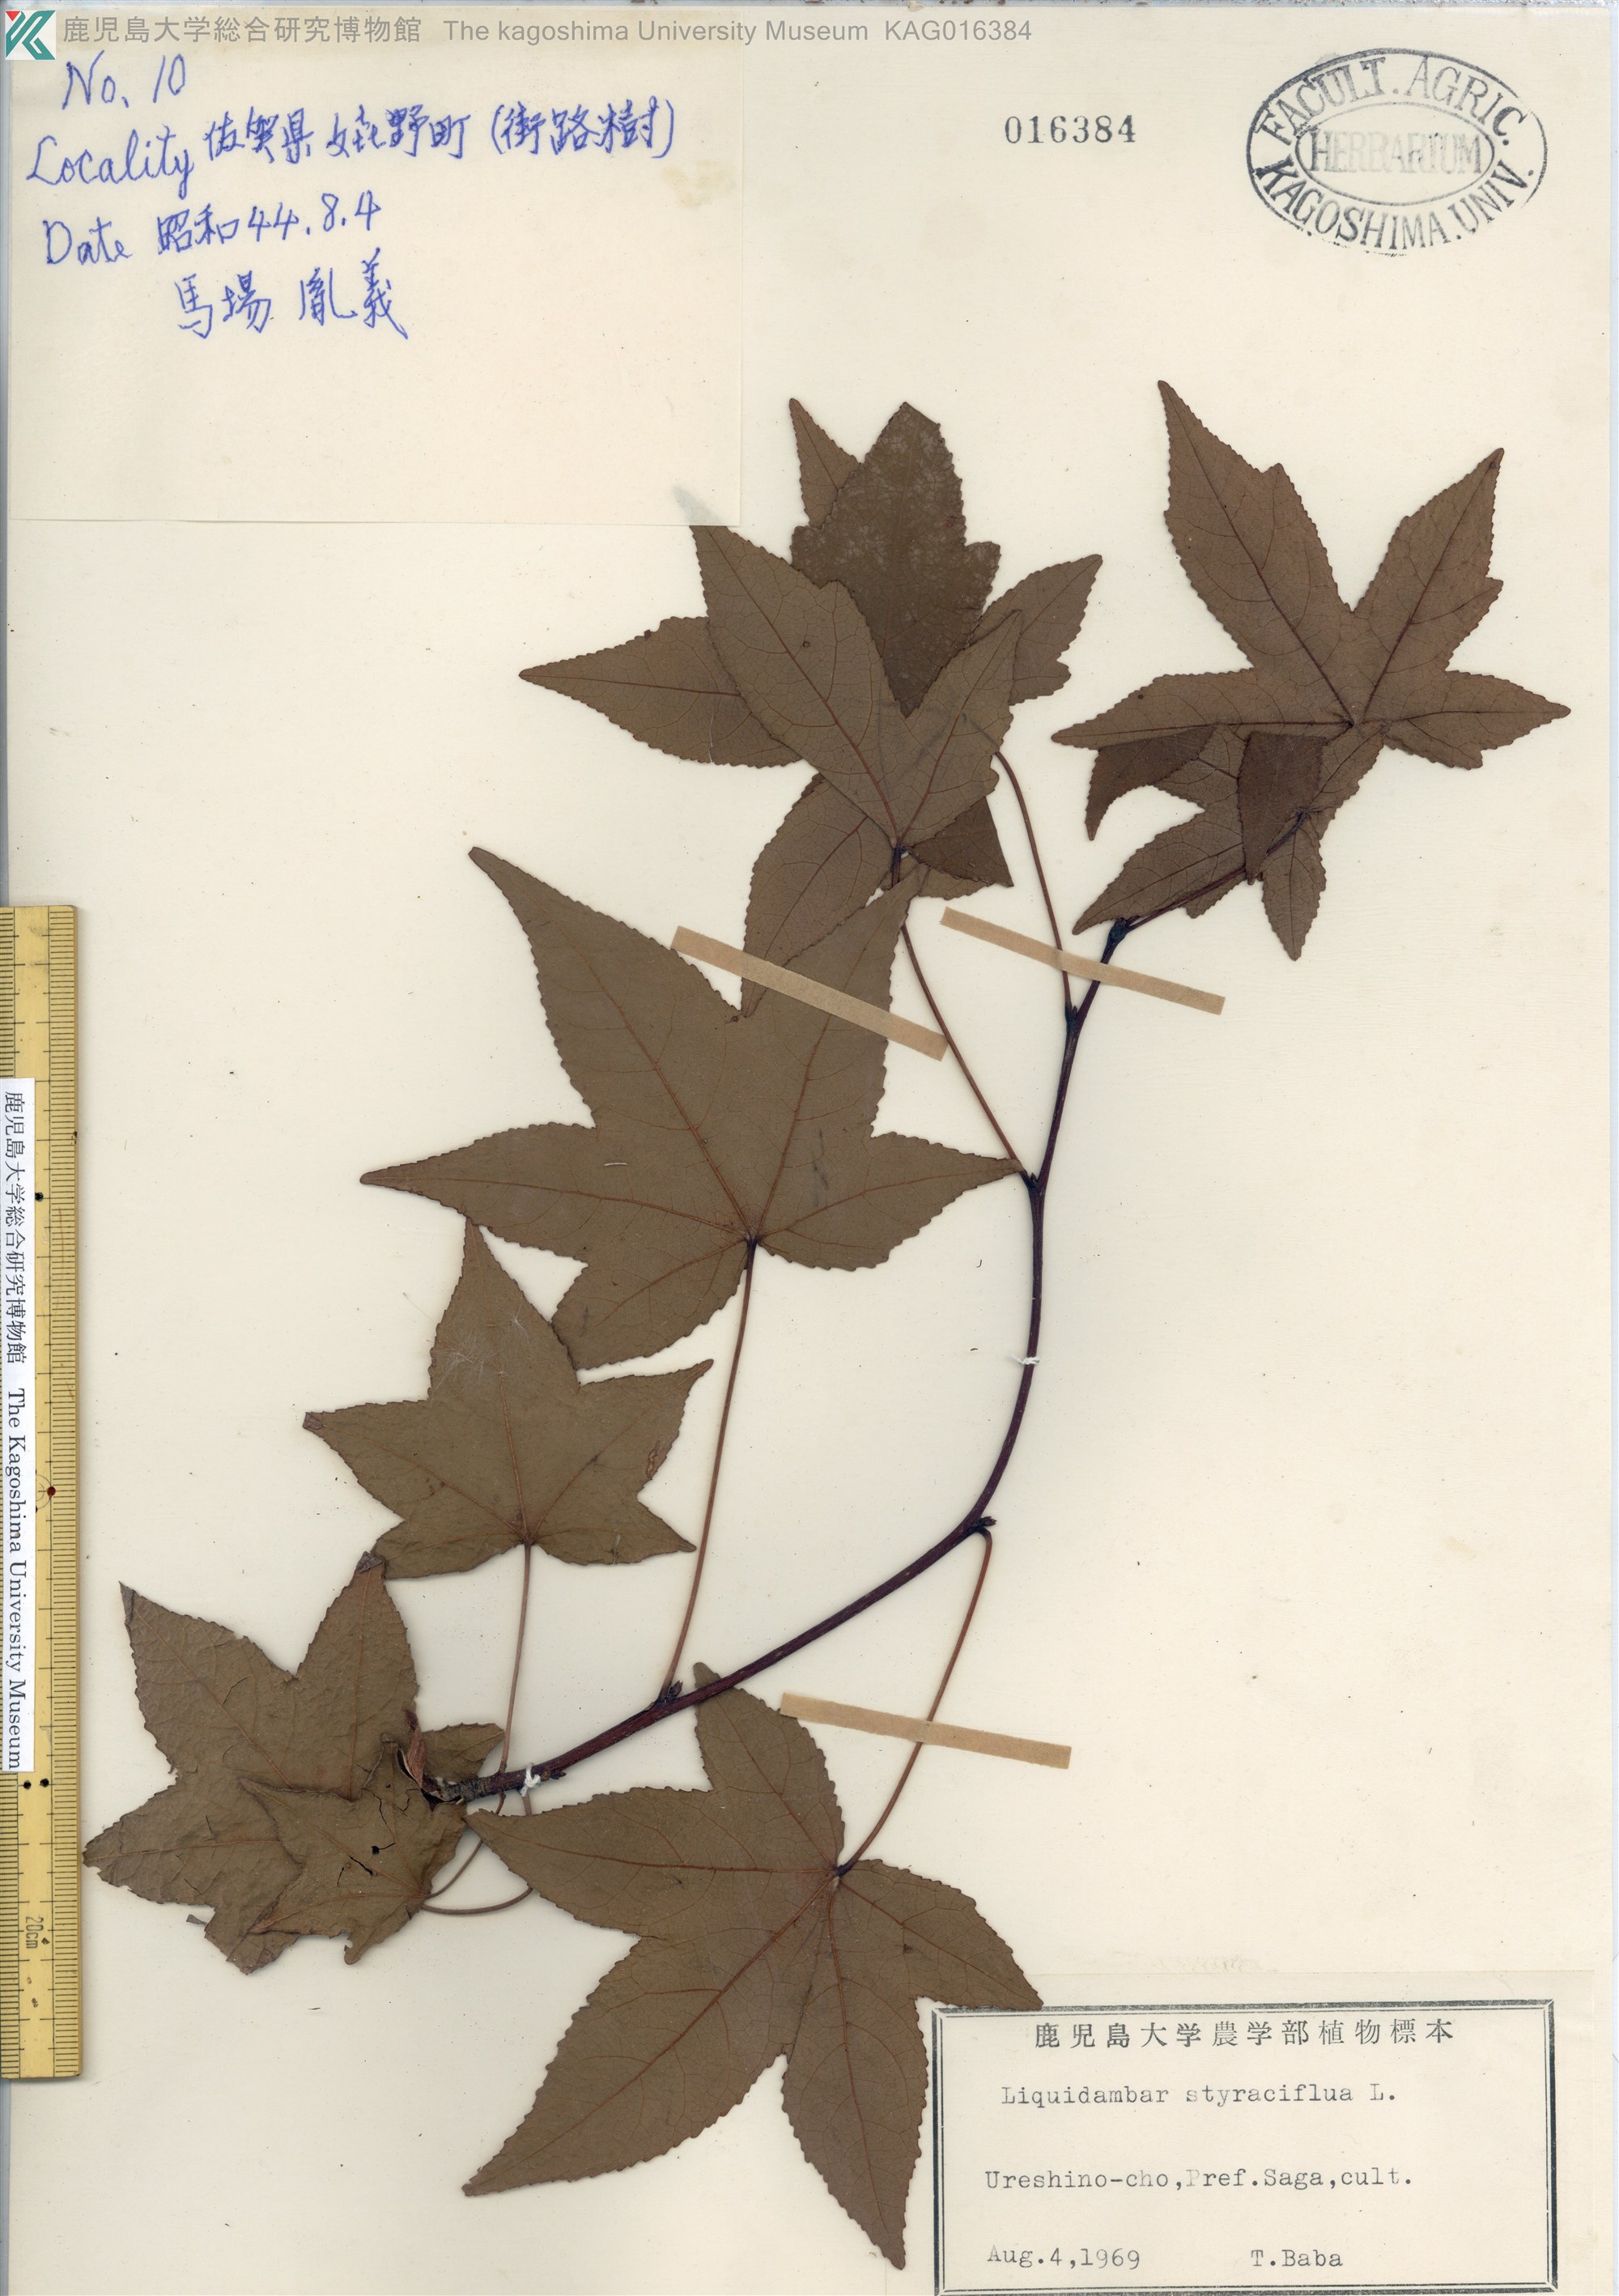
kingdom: Plantae
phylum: Tracheophyta
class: Magnoliopsida
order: Saxifragales
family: Altingiaceae
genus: Liquidambar
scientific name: Liquidambar styraciflua
